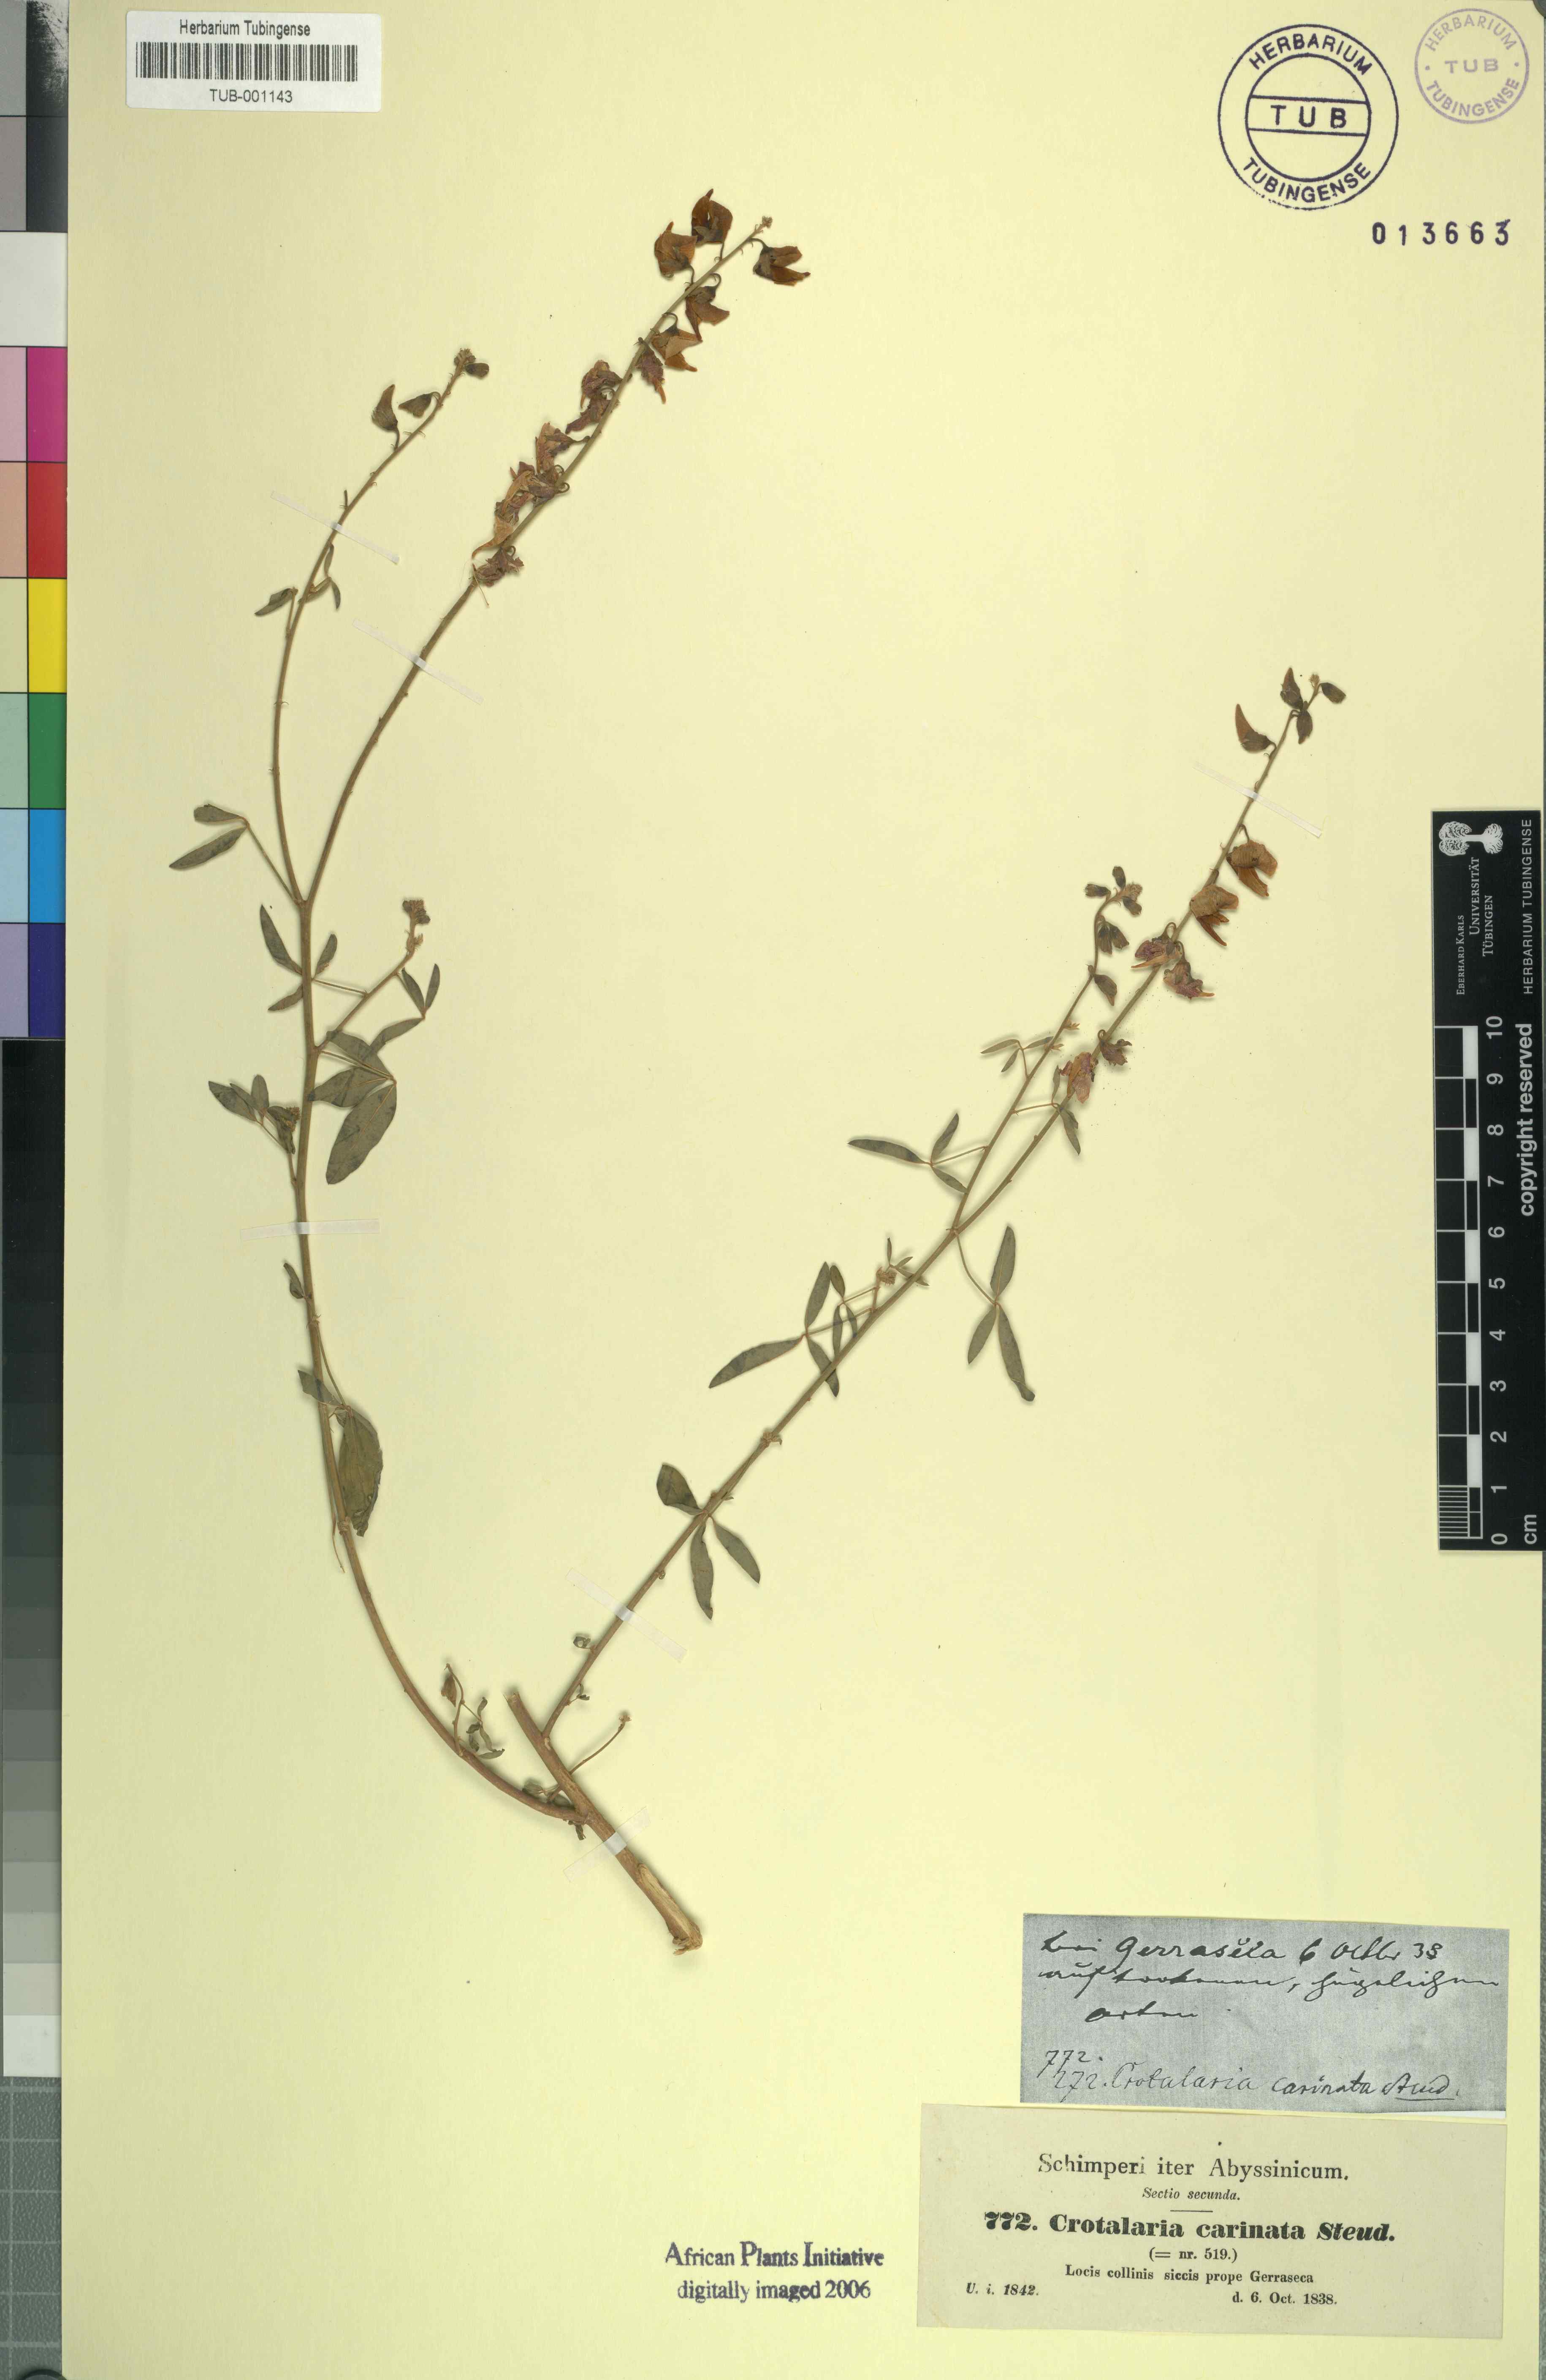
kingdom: Plantae
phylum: Tracheophyta
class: Magnoliopsida
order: Fabales
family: Fabaceae
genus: Crotalaria
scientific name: Crotalaria senegalensis
